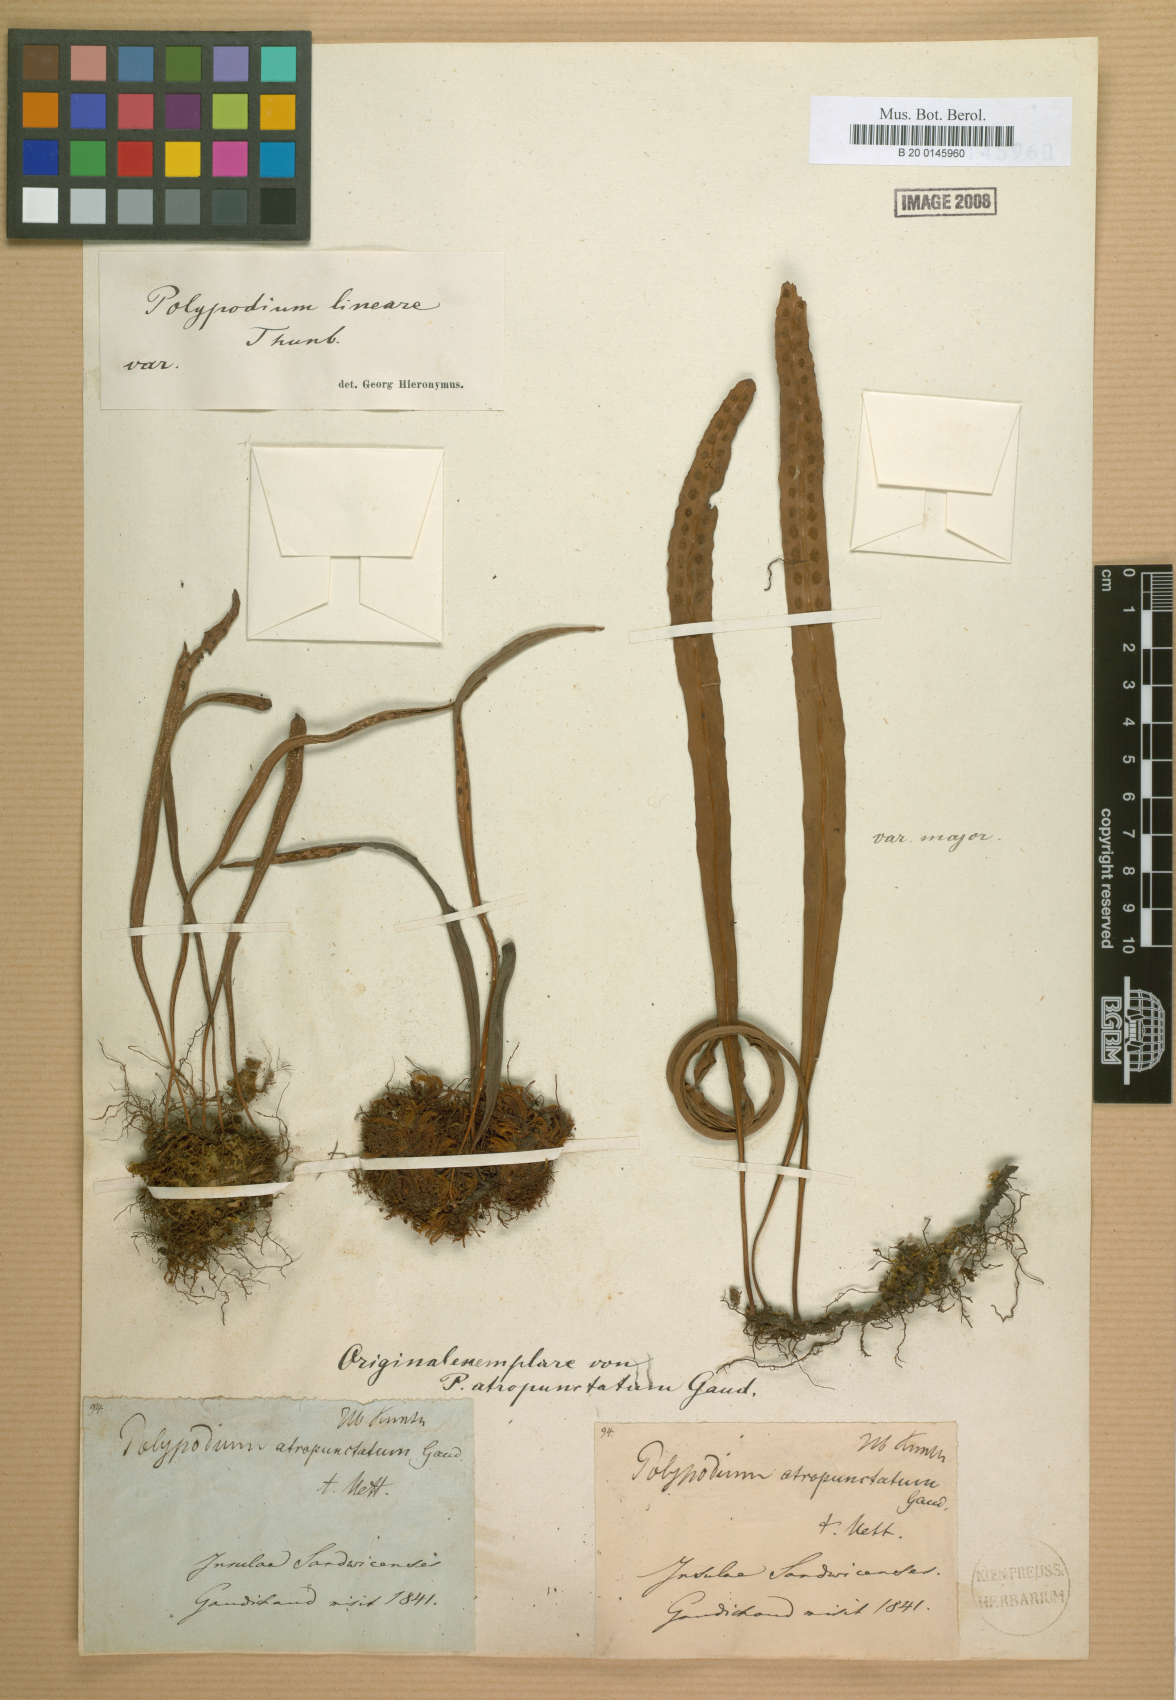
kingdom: Plantae
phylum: Tracheophyta
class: Polypodiopsida
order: Polypodiales
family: Polypodiaceae
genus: Lepisorus
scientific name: Lepisorus thunbergianus
